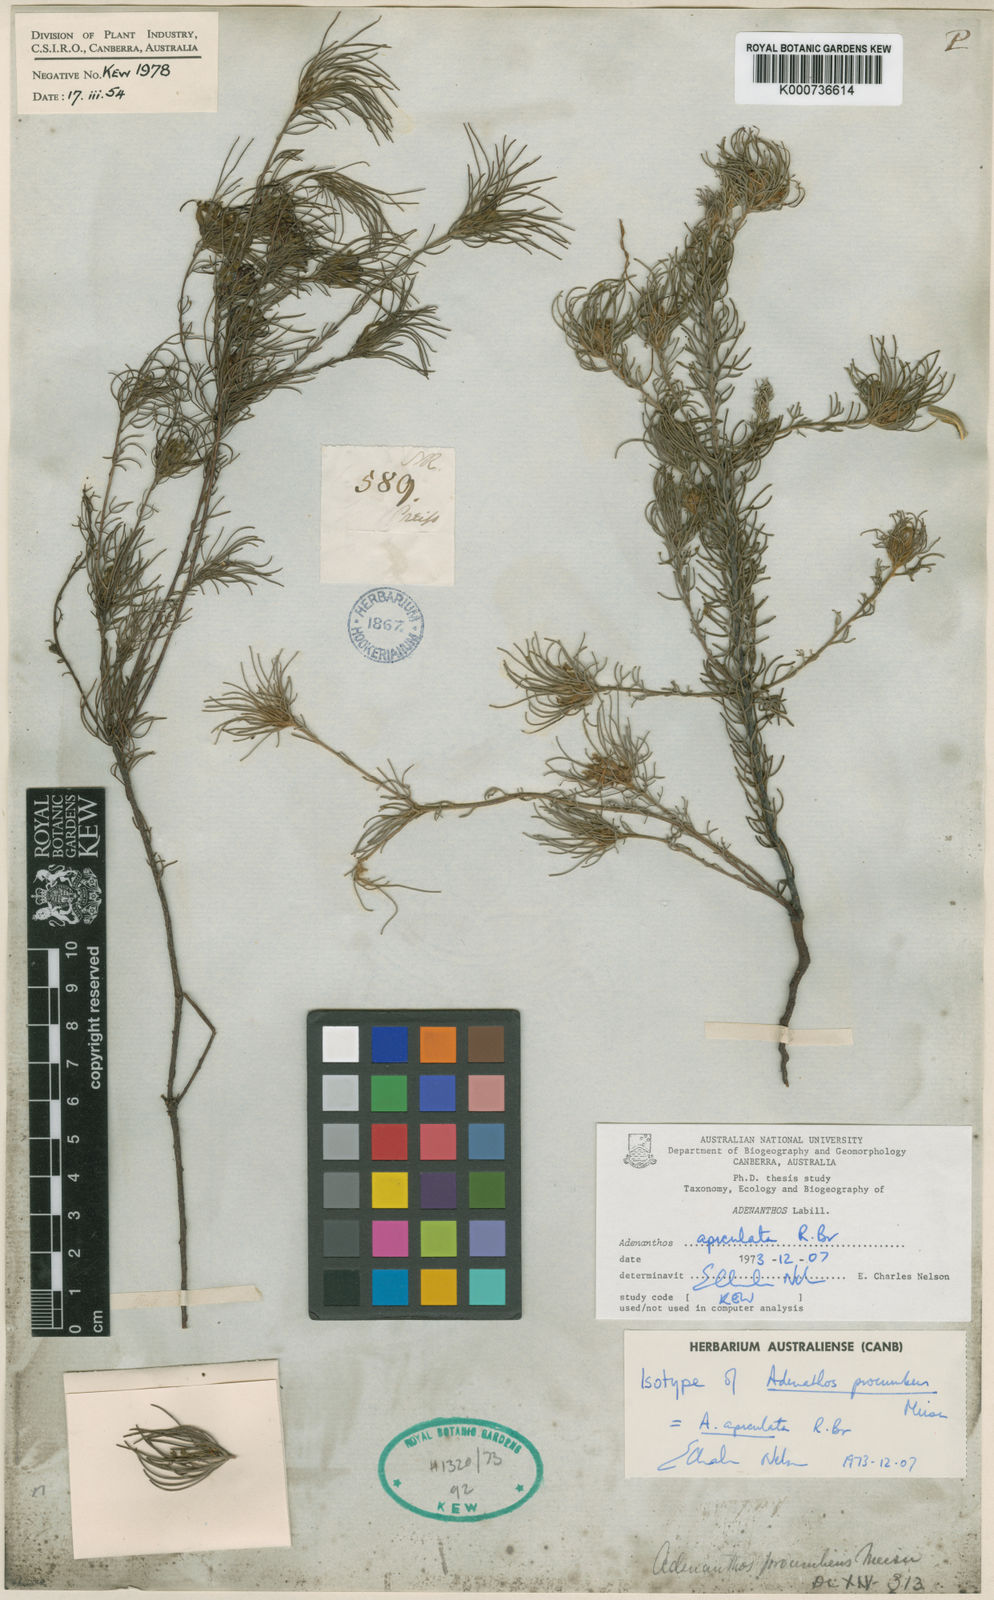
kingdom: Plantae
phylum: Tracheophyta
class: Magnoliopsida
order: Proteales
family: Proteaceae
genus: Adenanthos
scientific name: Adenanthos apiculatus
